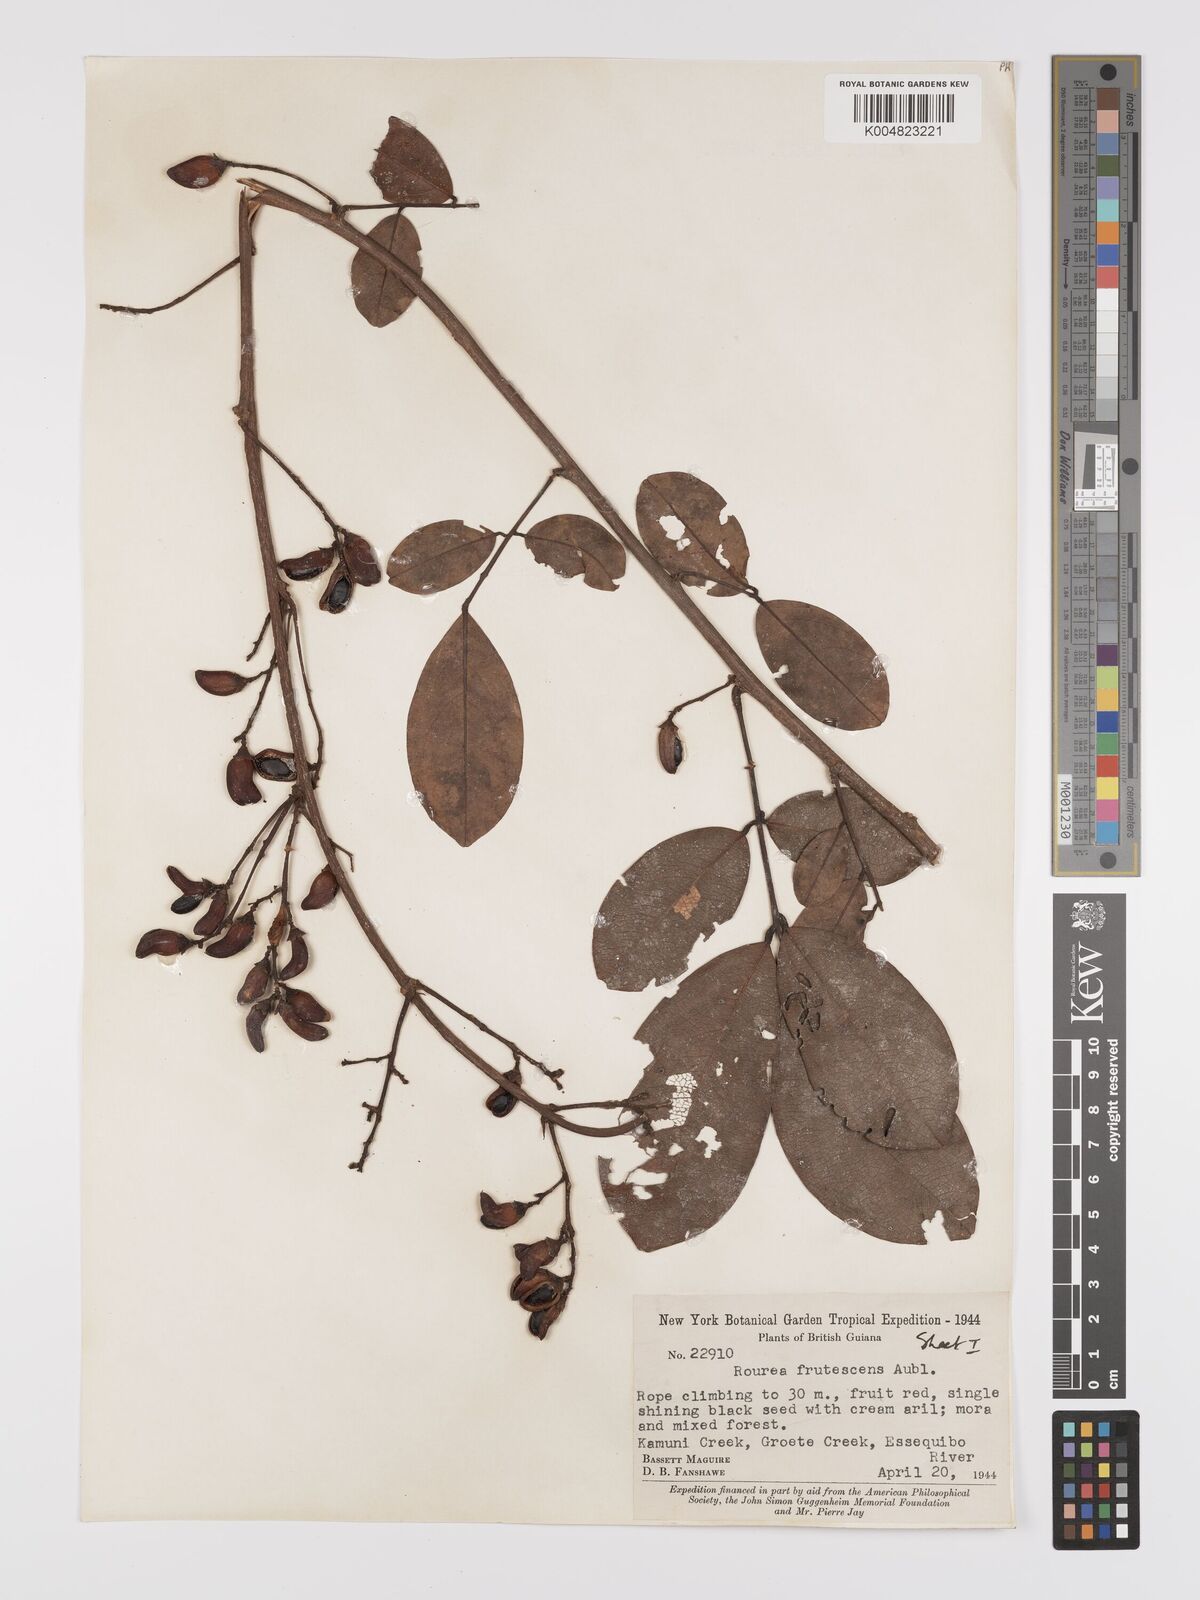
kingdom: Plantae
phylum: Tracheophyta
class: Magnoliopsida
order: Oxalidales
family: Connaraceae
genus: Rourea
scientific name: Rourea frutescens
